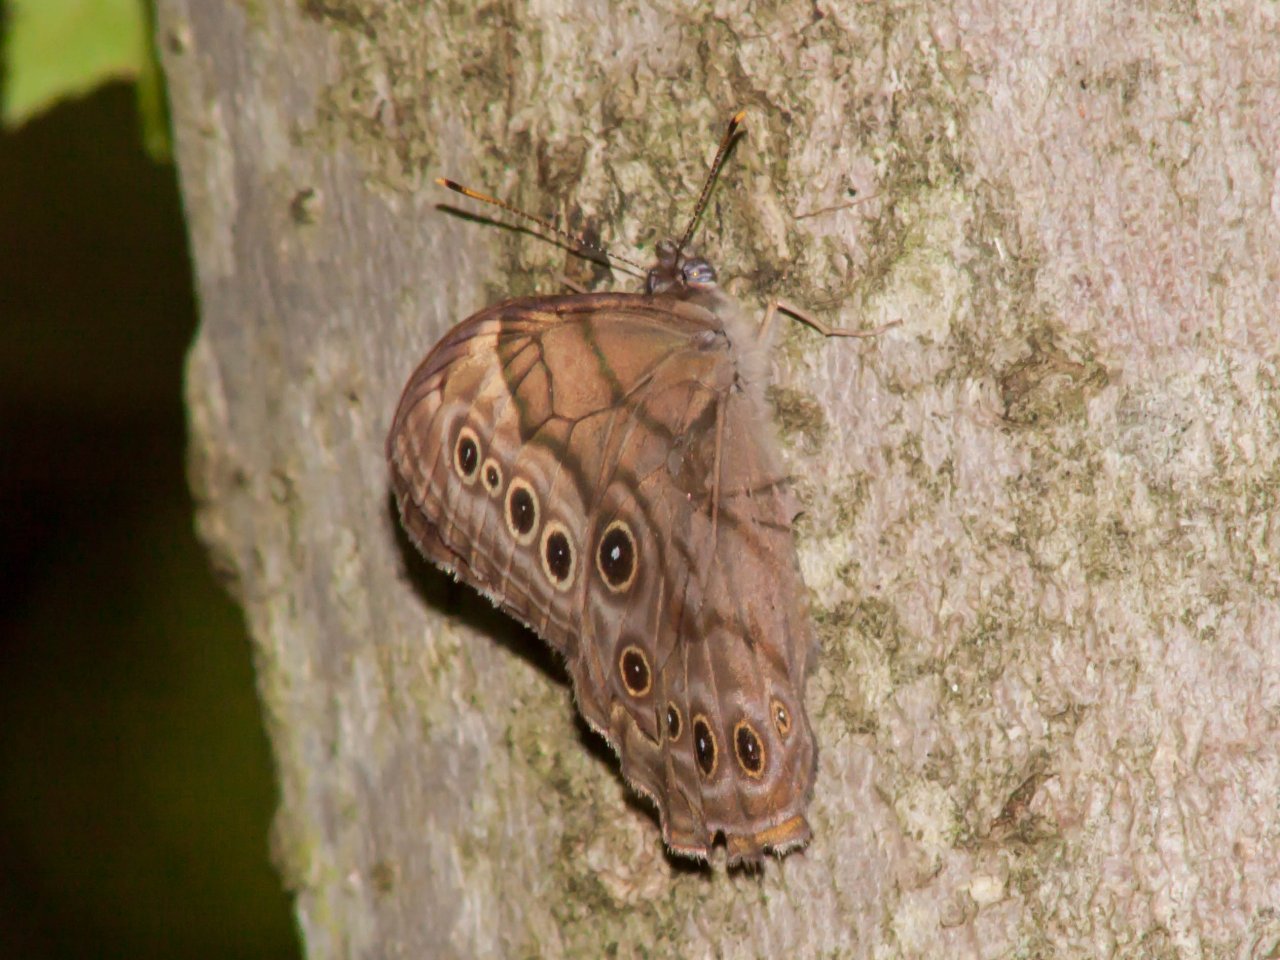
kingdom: Animalia
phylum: Arthropoda
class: Insecta
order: Lepidoptera
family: Nymphalidae
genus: Lethe
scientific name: Lethe anthedon
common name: Northern Pearly-Eye
